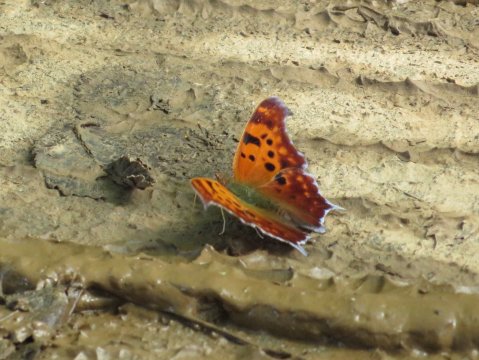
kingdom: Animalia
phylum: Arthropoda
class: Insecta
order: Lepidoptera
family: Nymphalidae
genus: Polygonia
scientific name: Polygonia interrogationis
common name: Question Mark
